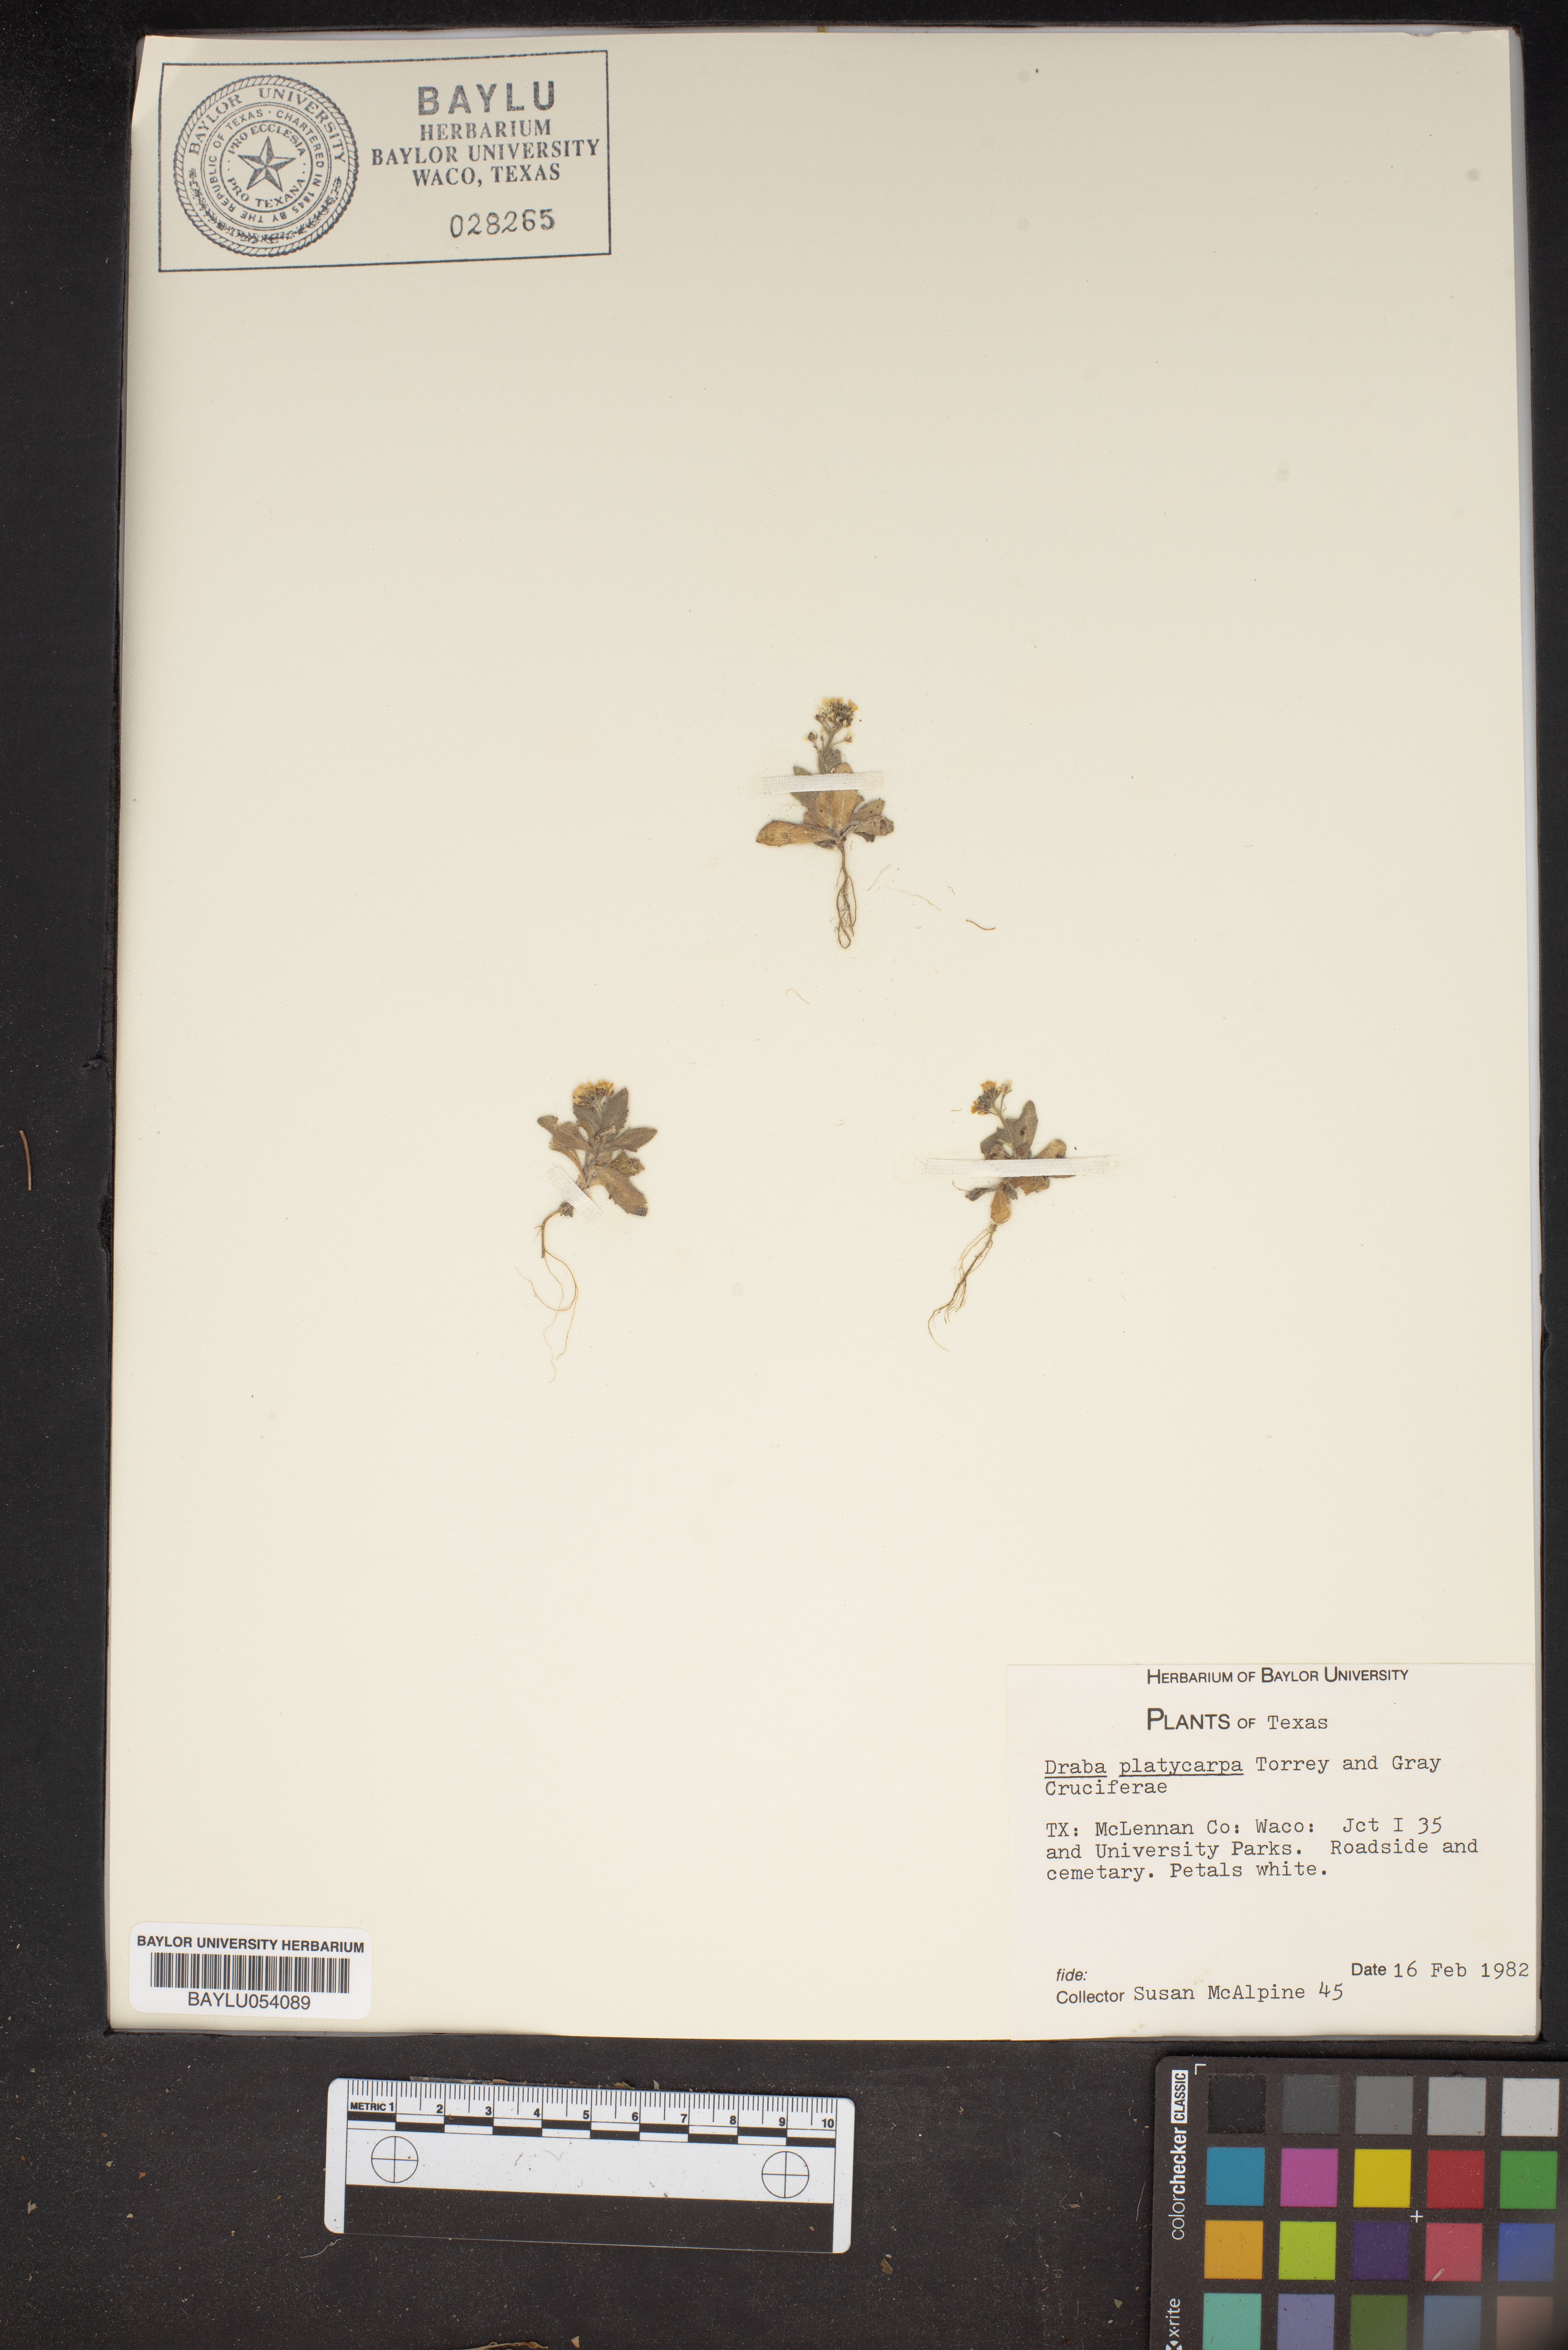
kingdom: Plantae
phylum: Tracheophyta
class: Magnoliopsida
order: Brassicales
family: Brassicaceae
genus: Tomostima
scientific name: Tomostima platycarpa
